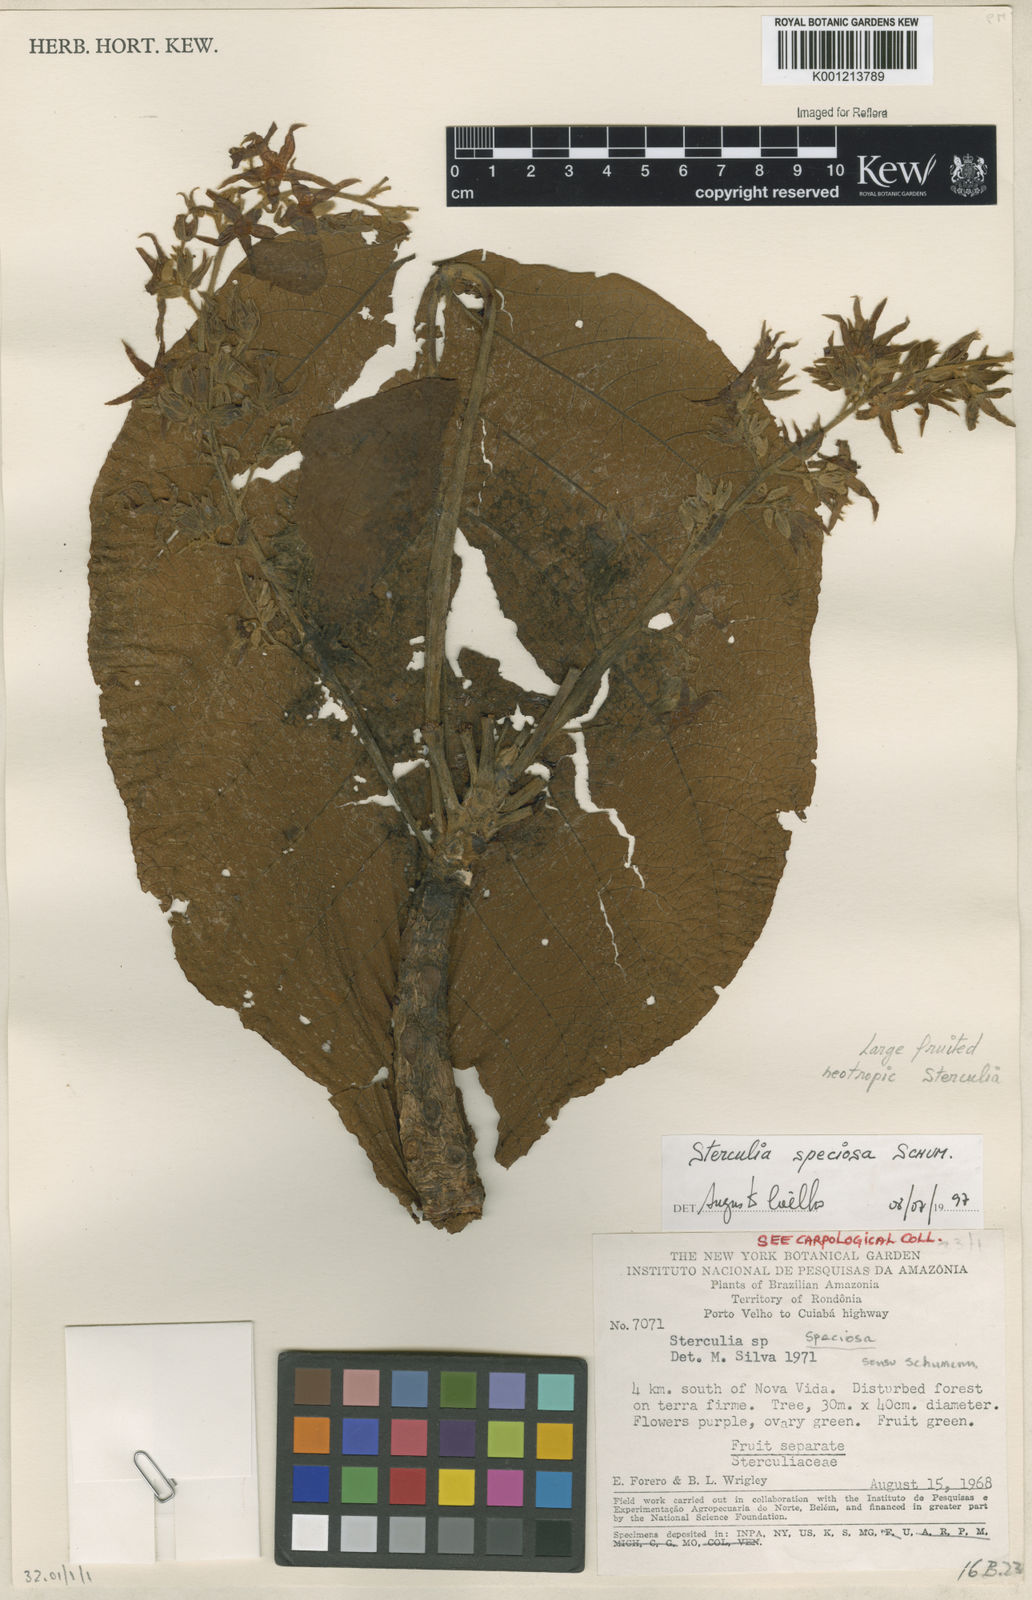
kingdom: Plantae
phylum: Tracheophyta
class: Magnoliopsida
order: Malvales
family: Malvaceae
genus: Sterculia
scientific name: Sterculia speciosa
